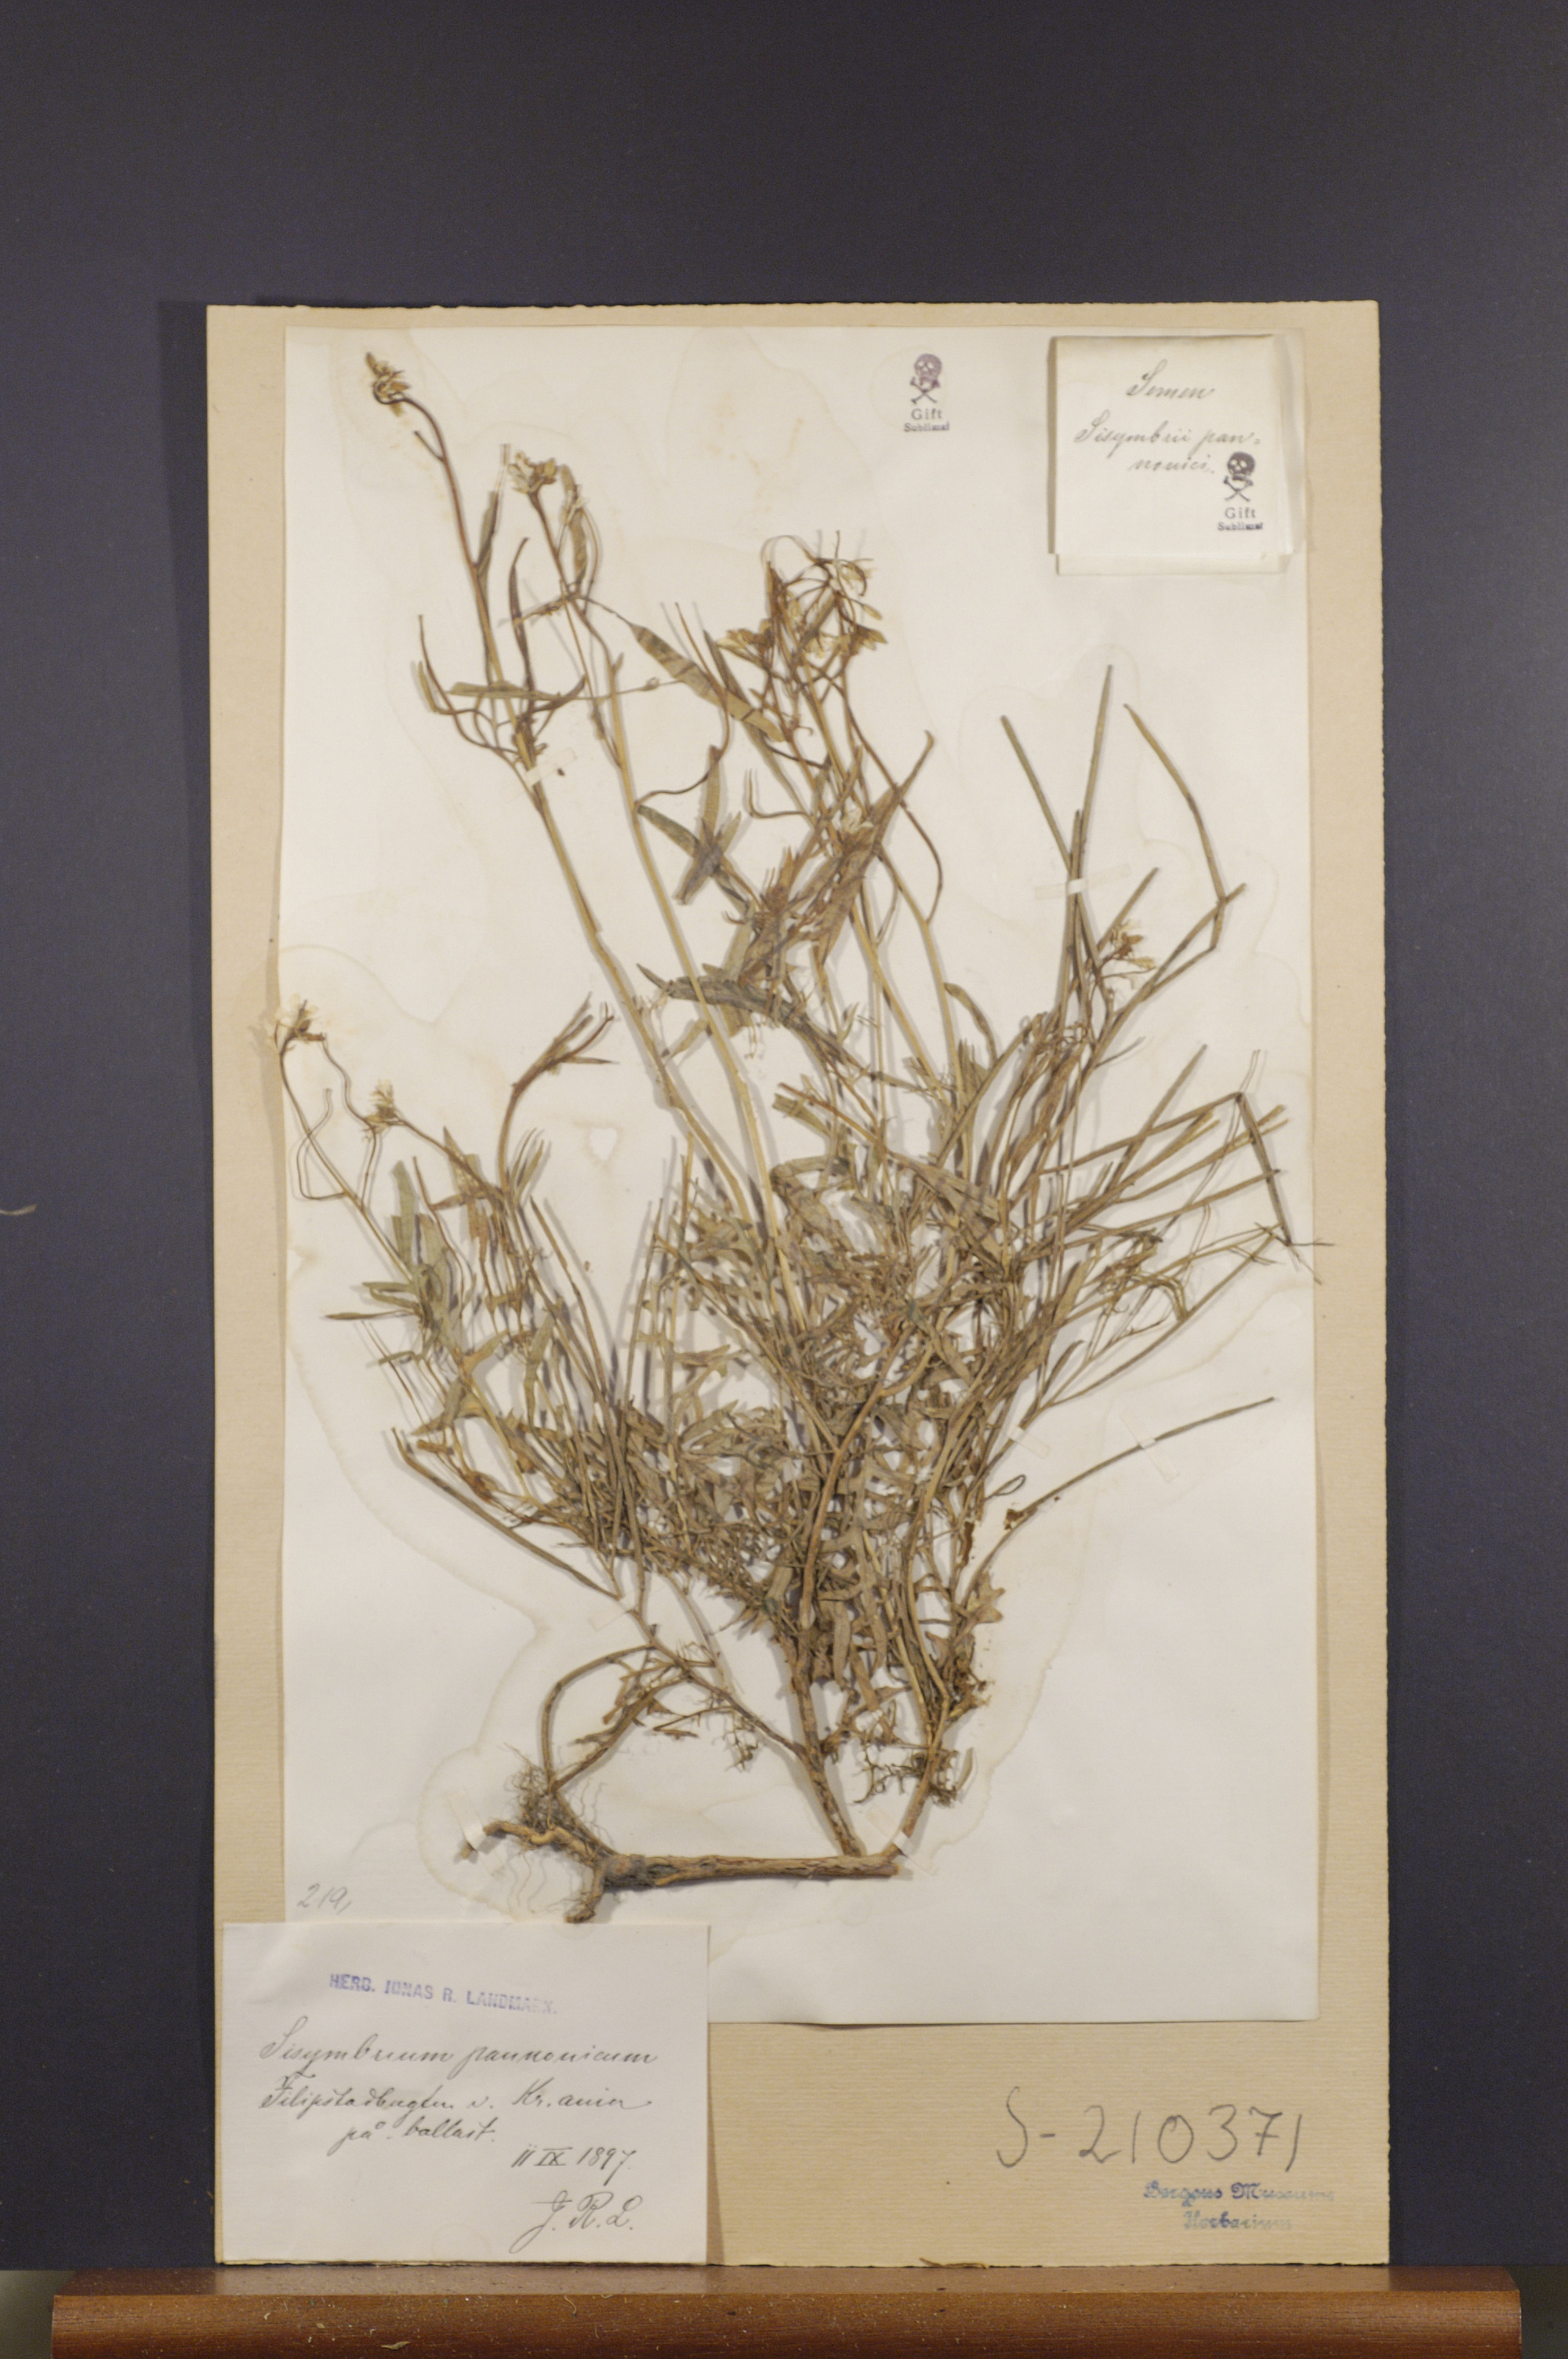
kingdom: Plantae
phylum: Tracheophyta
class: Magnoliopsida
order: Brassicales
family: Brassicaceae
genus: Sisymbrium
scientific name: Sisymbrium altissimum
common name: Tall rocket
